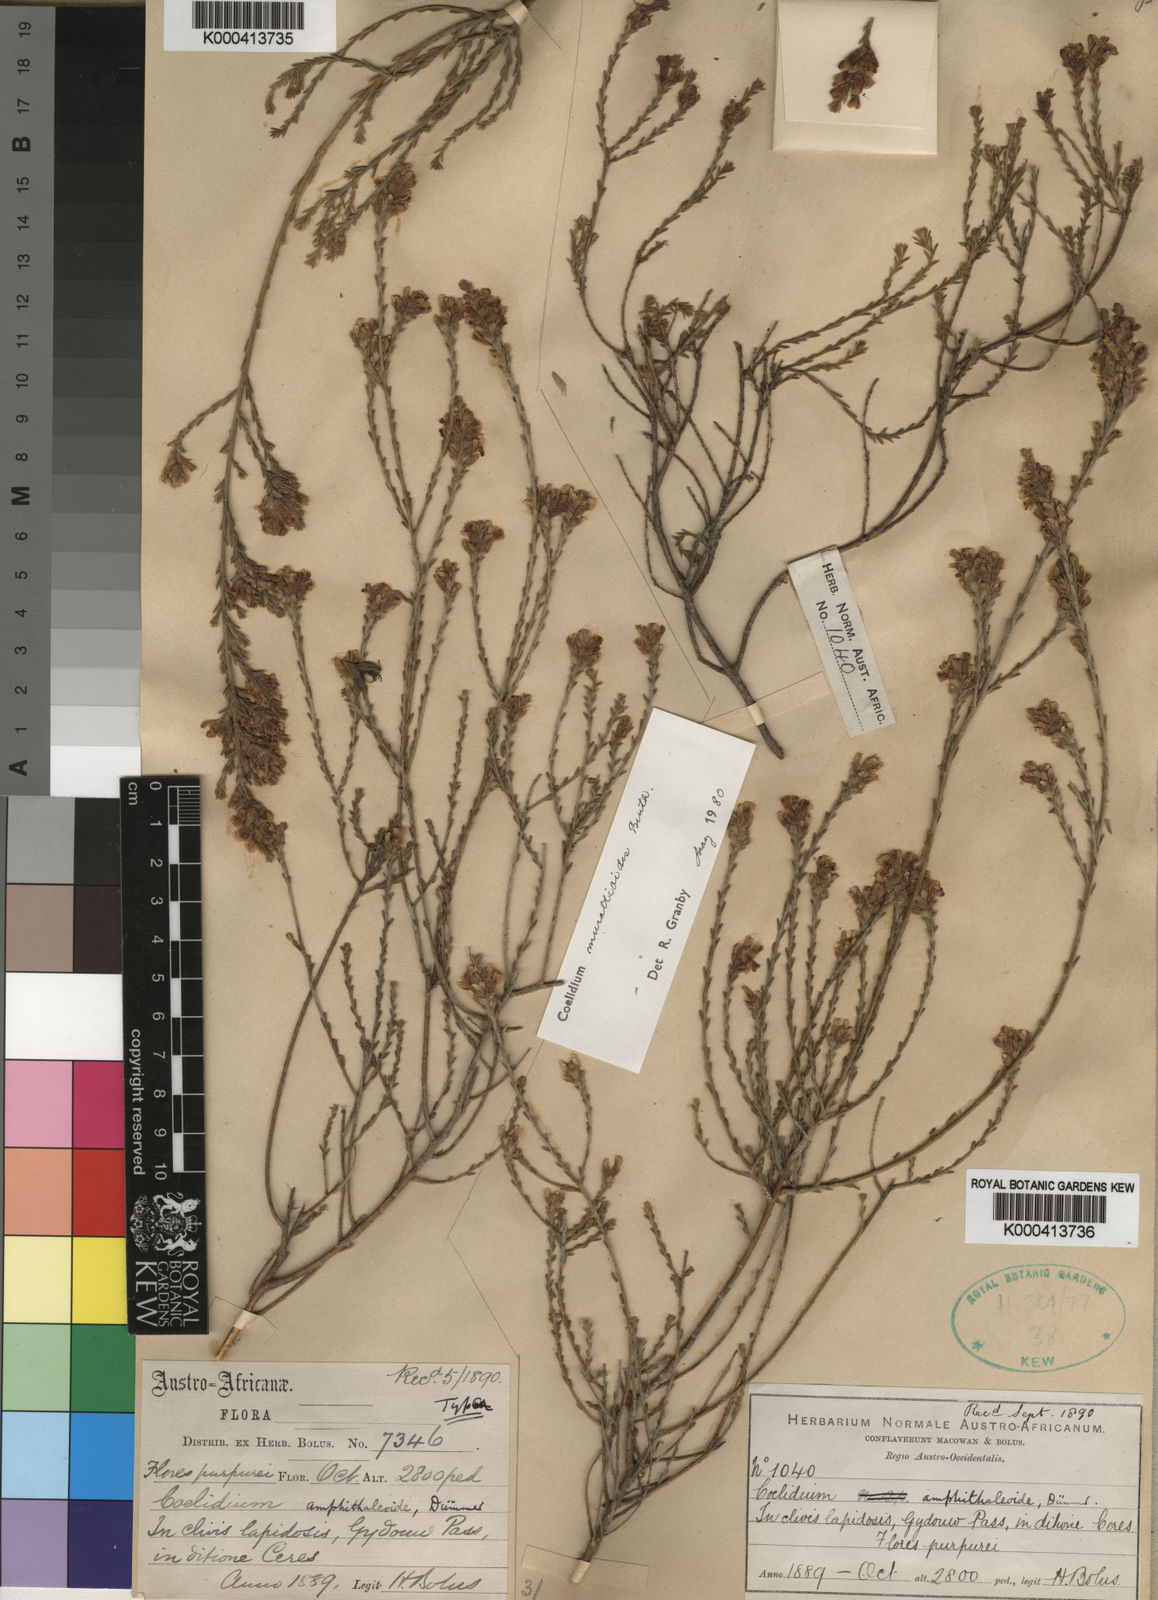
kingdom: Plantae
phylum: Tracheophyta
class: Magnoliopsida
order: Fabales
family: Fabaceae
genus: Amphithalea
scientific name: Amphithalea muraltioides
